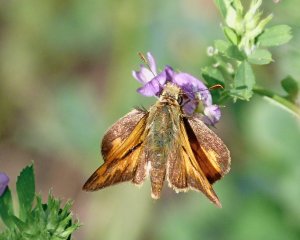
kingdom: Animalia
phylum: Arthropoda
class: Insecta
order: Lepidoptera
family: Hesperiidae
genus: Ochlodes
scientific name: Ochlodes sylvanoides
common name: Woodland Skipper
